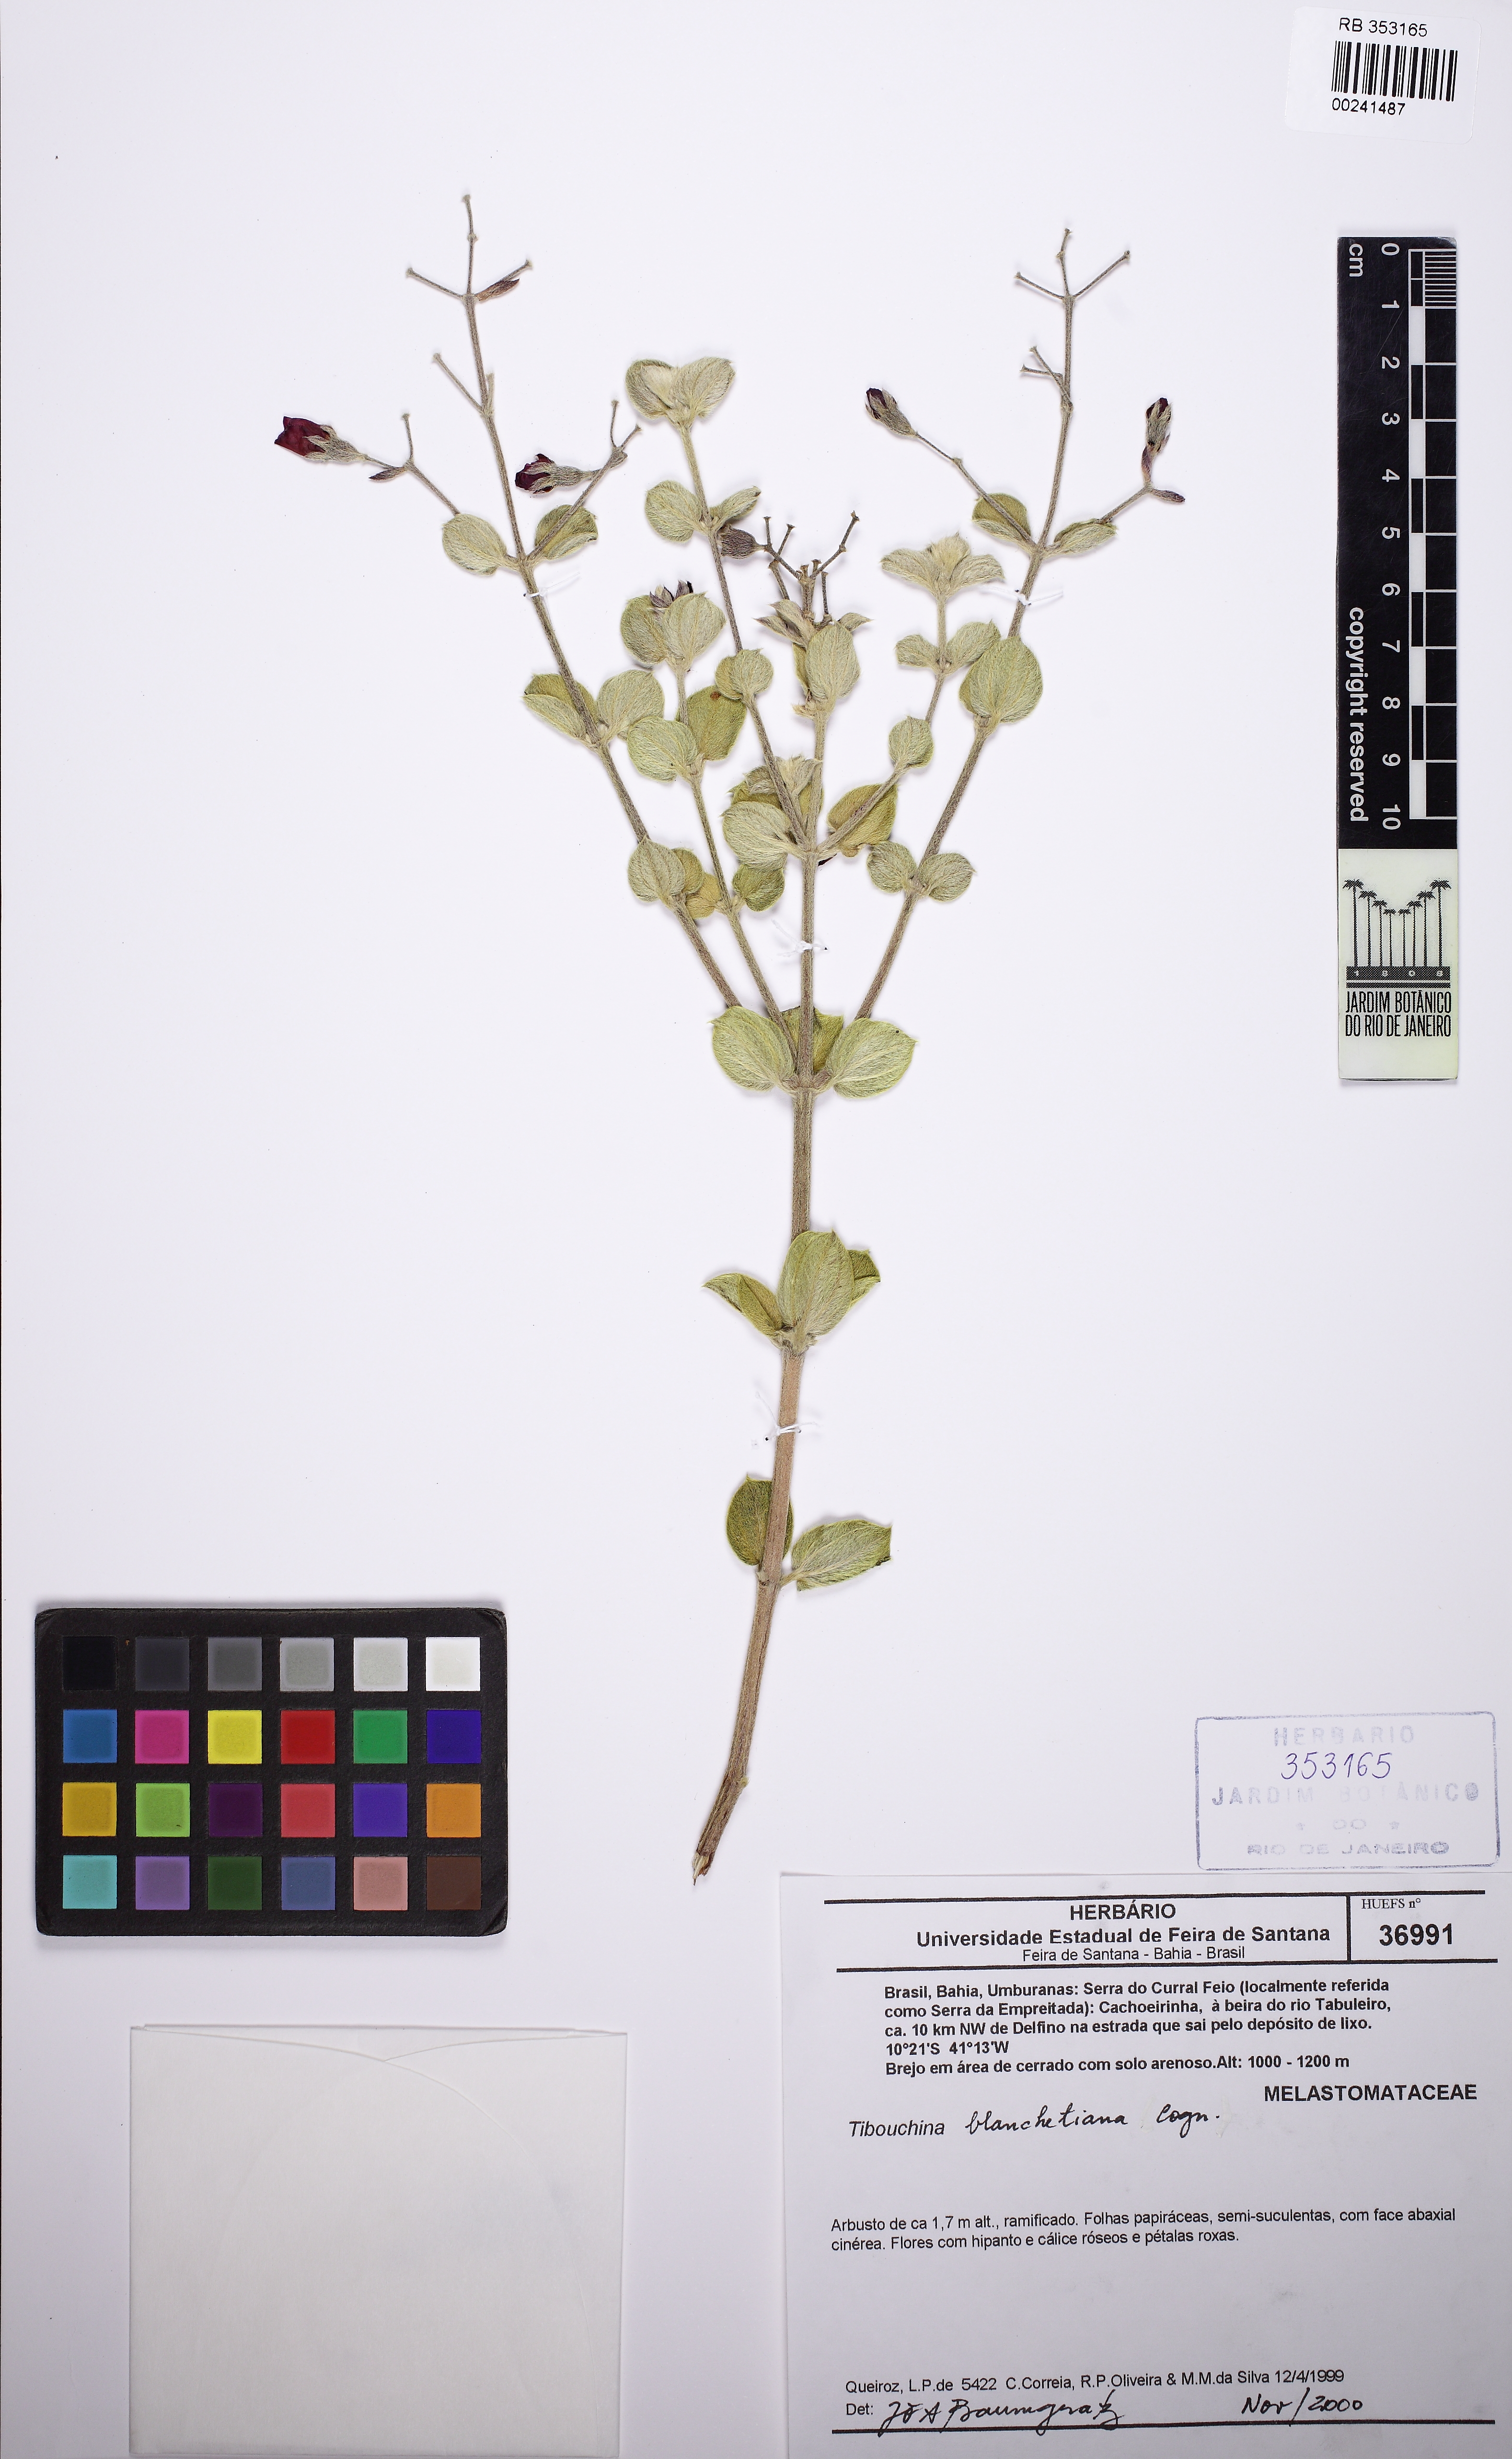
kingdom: Plantae
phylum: Tracheophyta
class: Magnoliopsida
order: Myrtales
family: Melastomataceae
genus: Pleroma
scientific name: Pleroma blanchetianum
